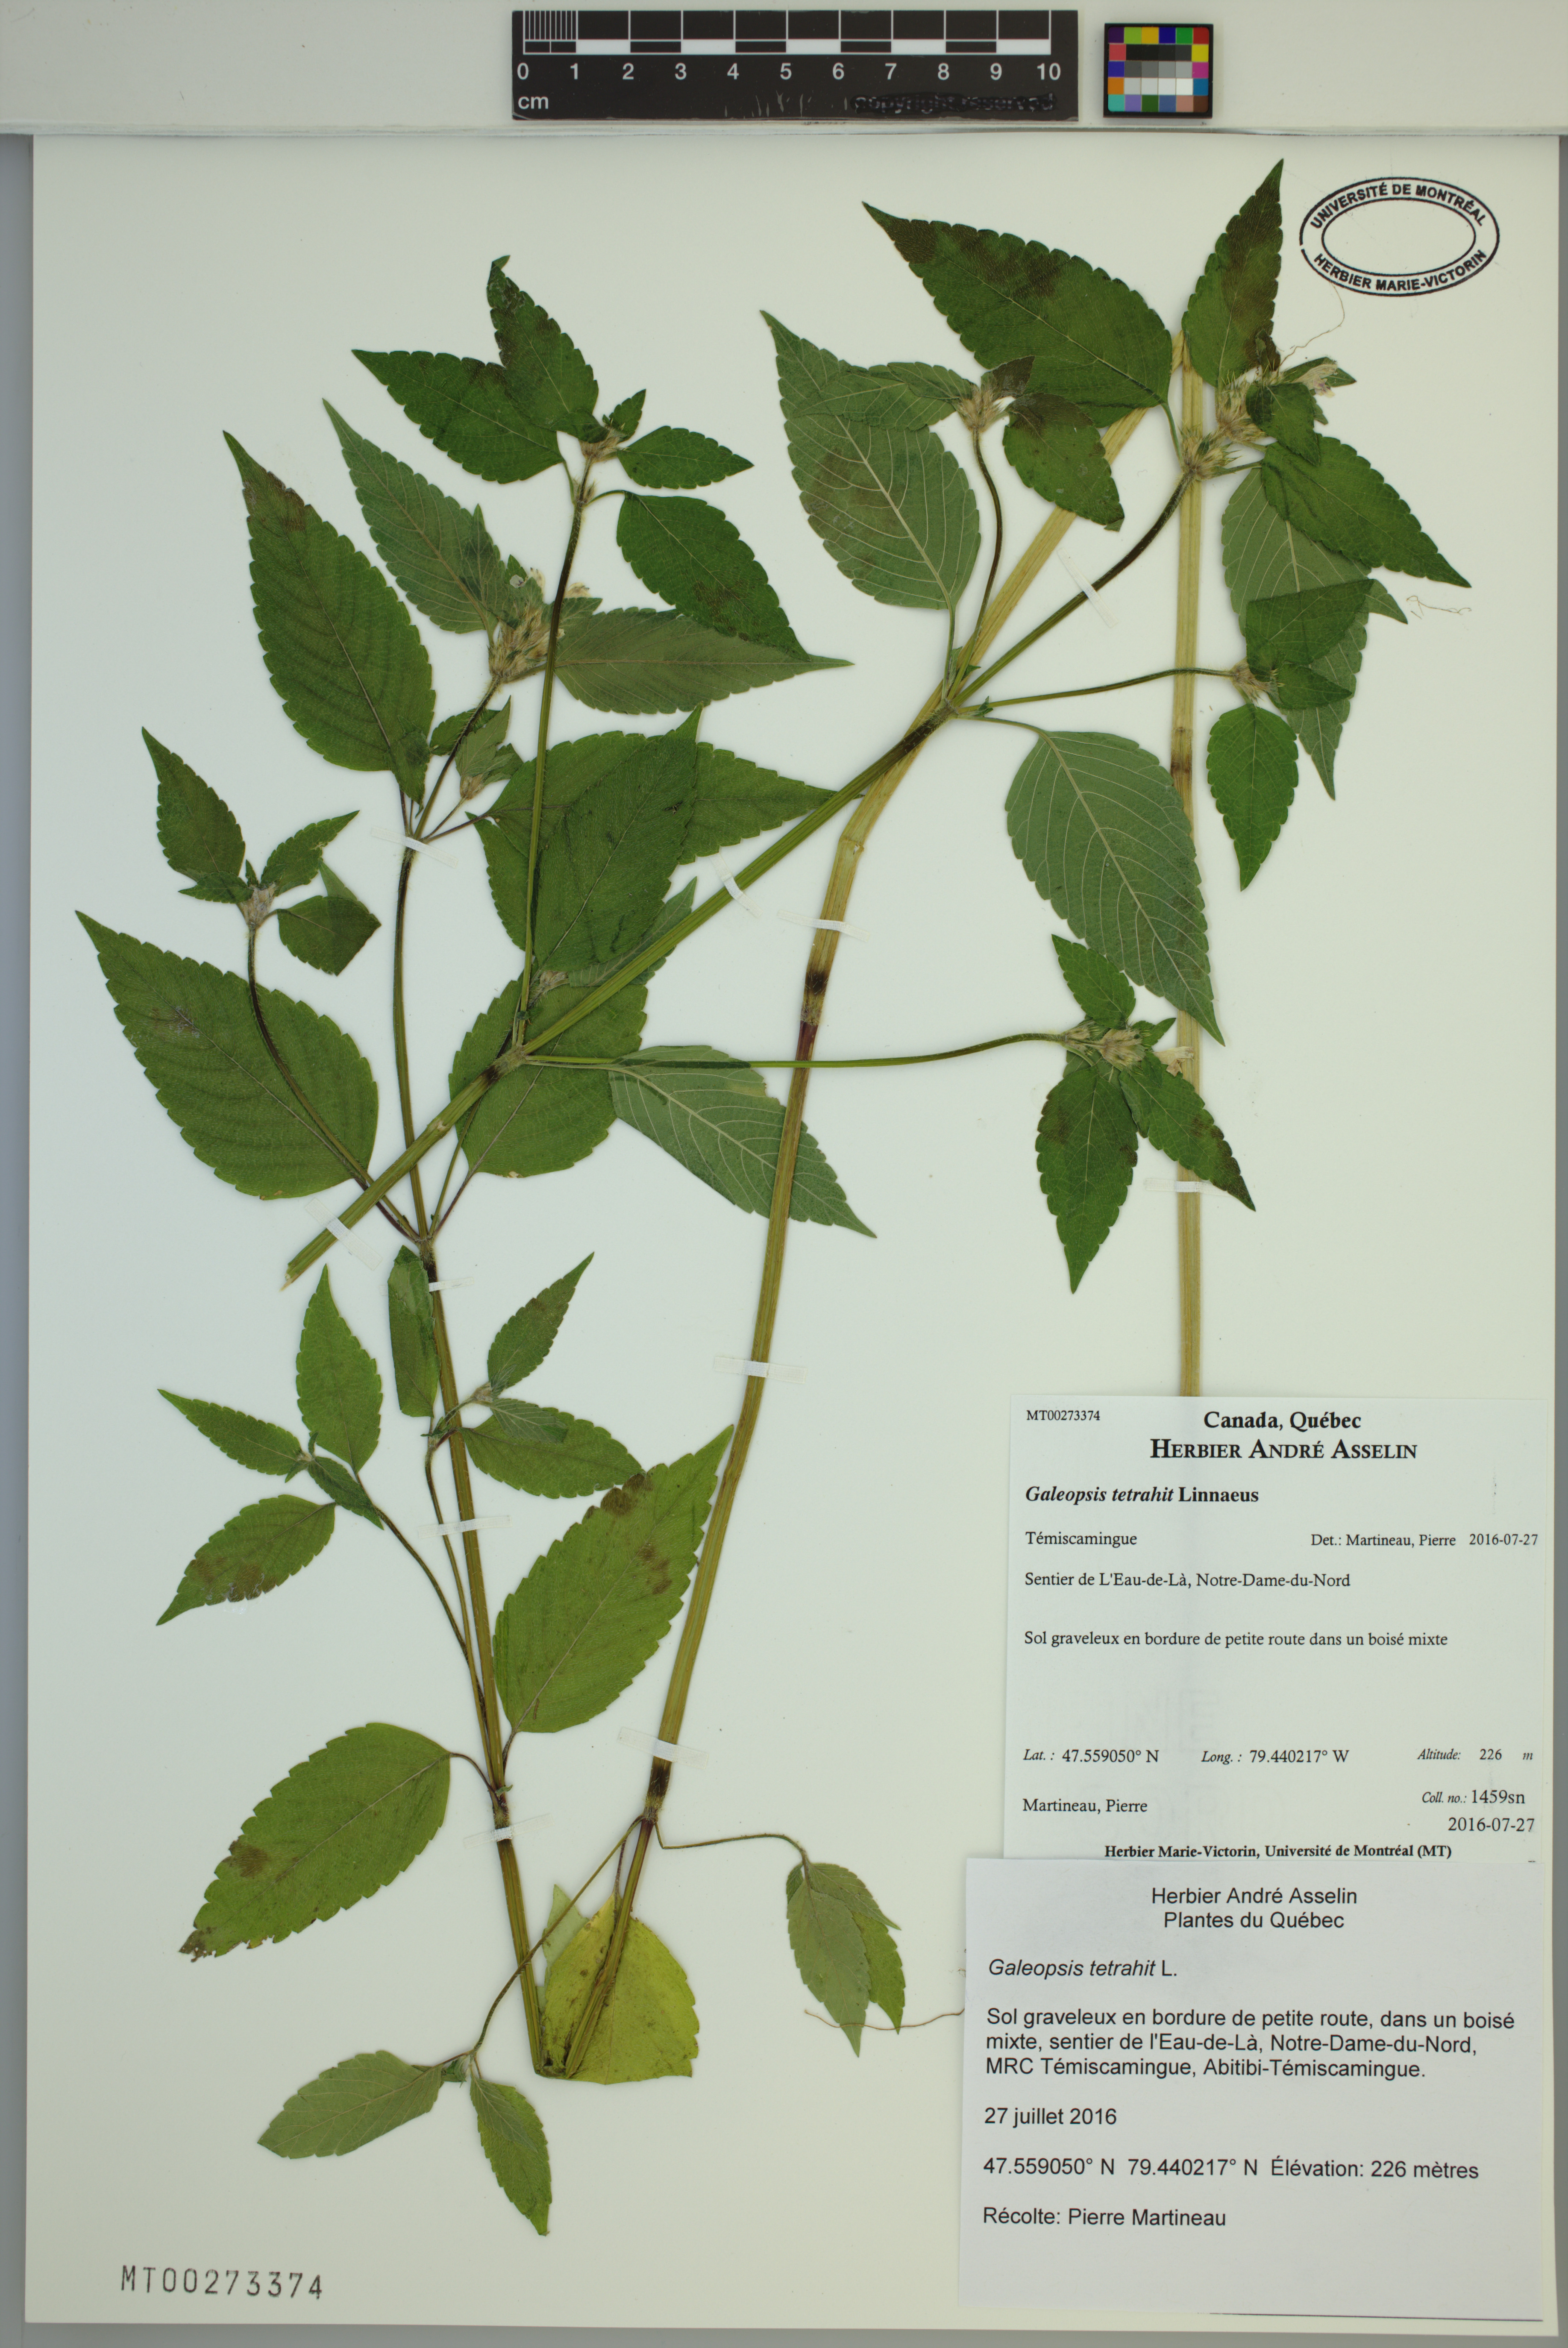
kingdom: Plantae
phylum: Tracheophyta
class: Magnoliopsida
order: Lamiales
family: Lamiaceae
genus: Galeopsis
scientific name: Galeopsis tetrahit
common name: Common hemp-nettle
